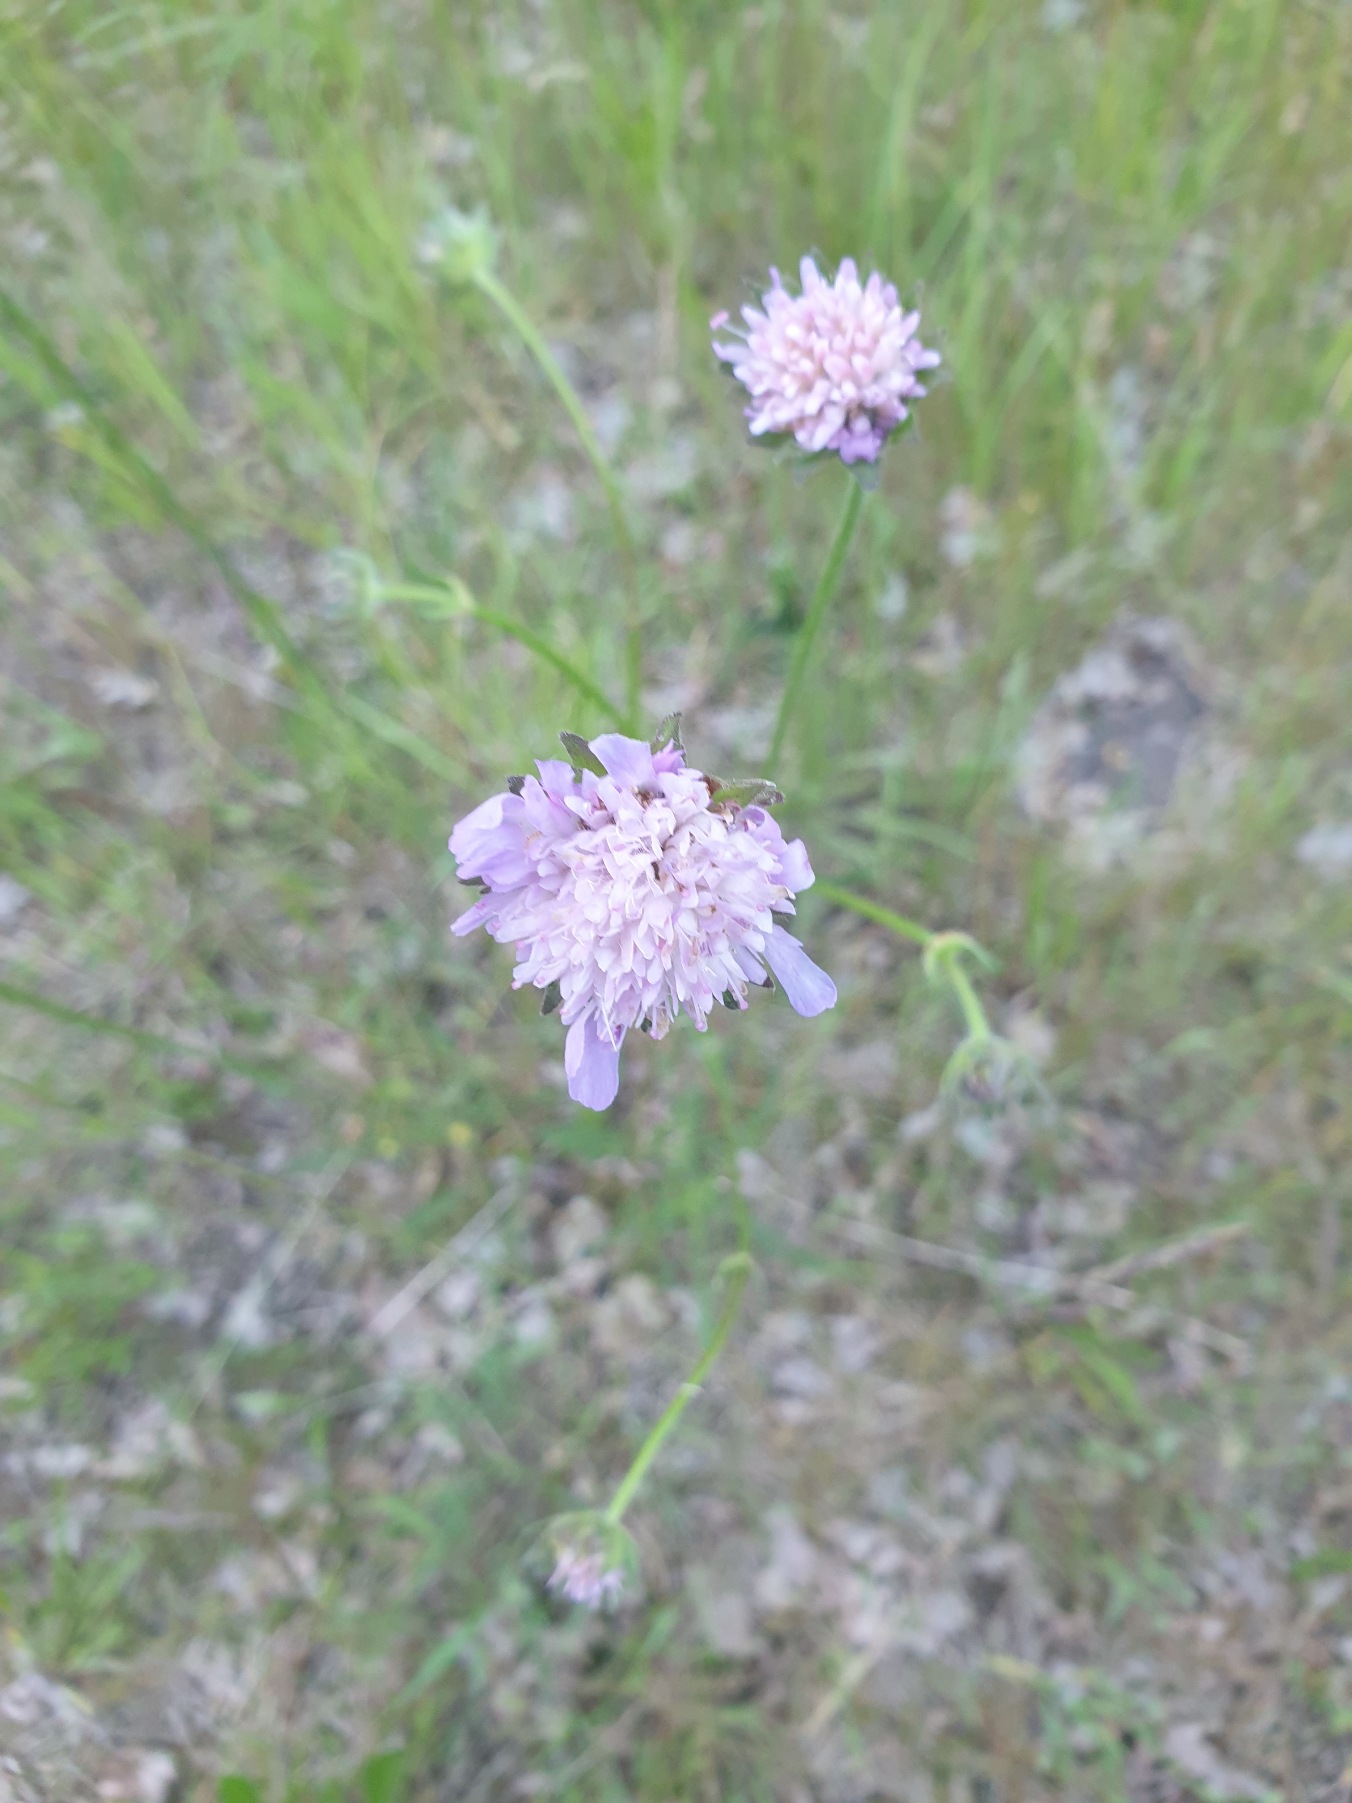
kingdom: Plantae
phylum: Tracheophyta
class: Magnoliopsida
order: Dipsacales
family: Caprifoliaceae
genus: Knautia
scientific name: Knautia arvensis
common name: Blåhat
